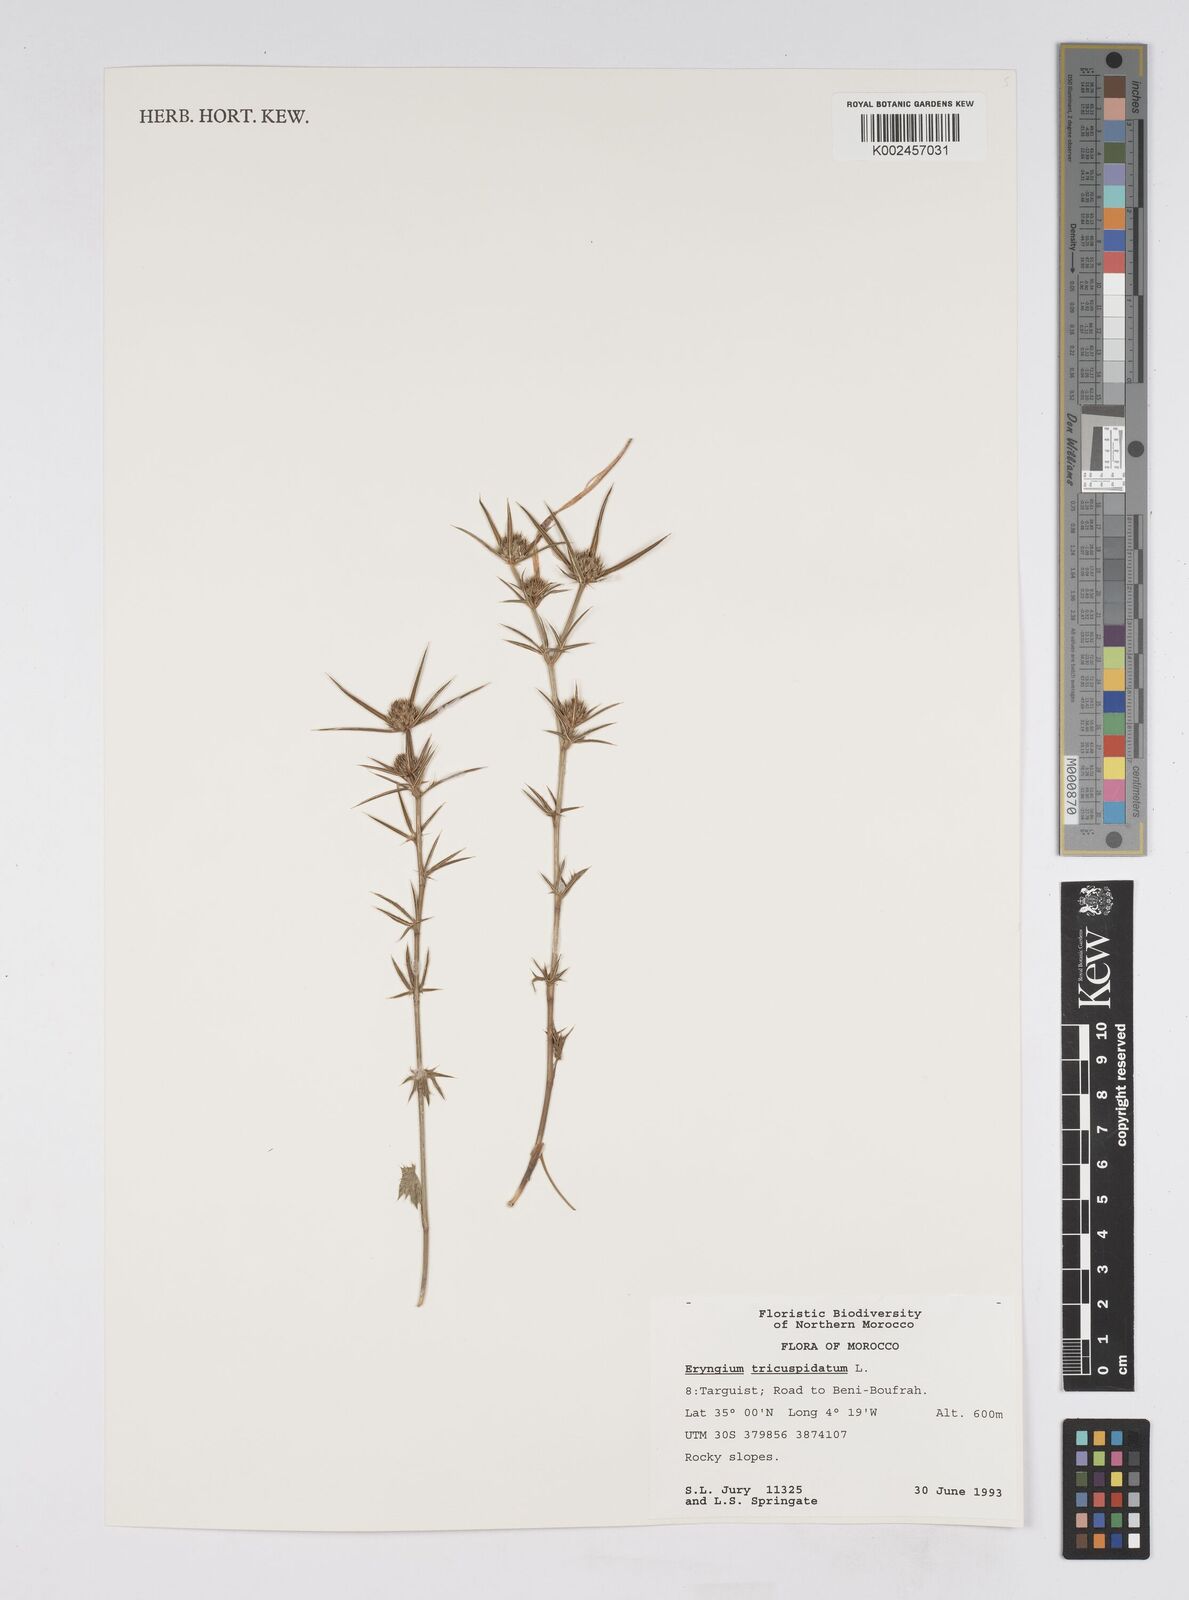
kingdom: Plantae
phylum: Tracheophyta
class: Magnoliopsida
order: Apiales
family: Apiaceae
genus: Eryngium
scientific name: Eryngium tricuspidatum
